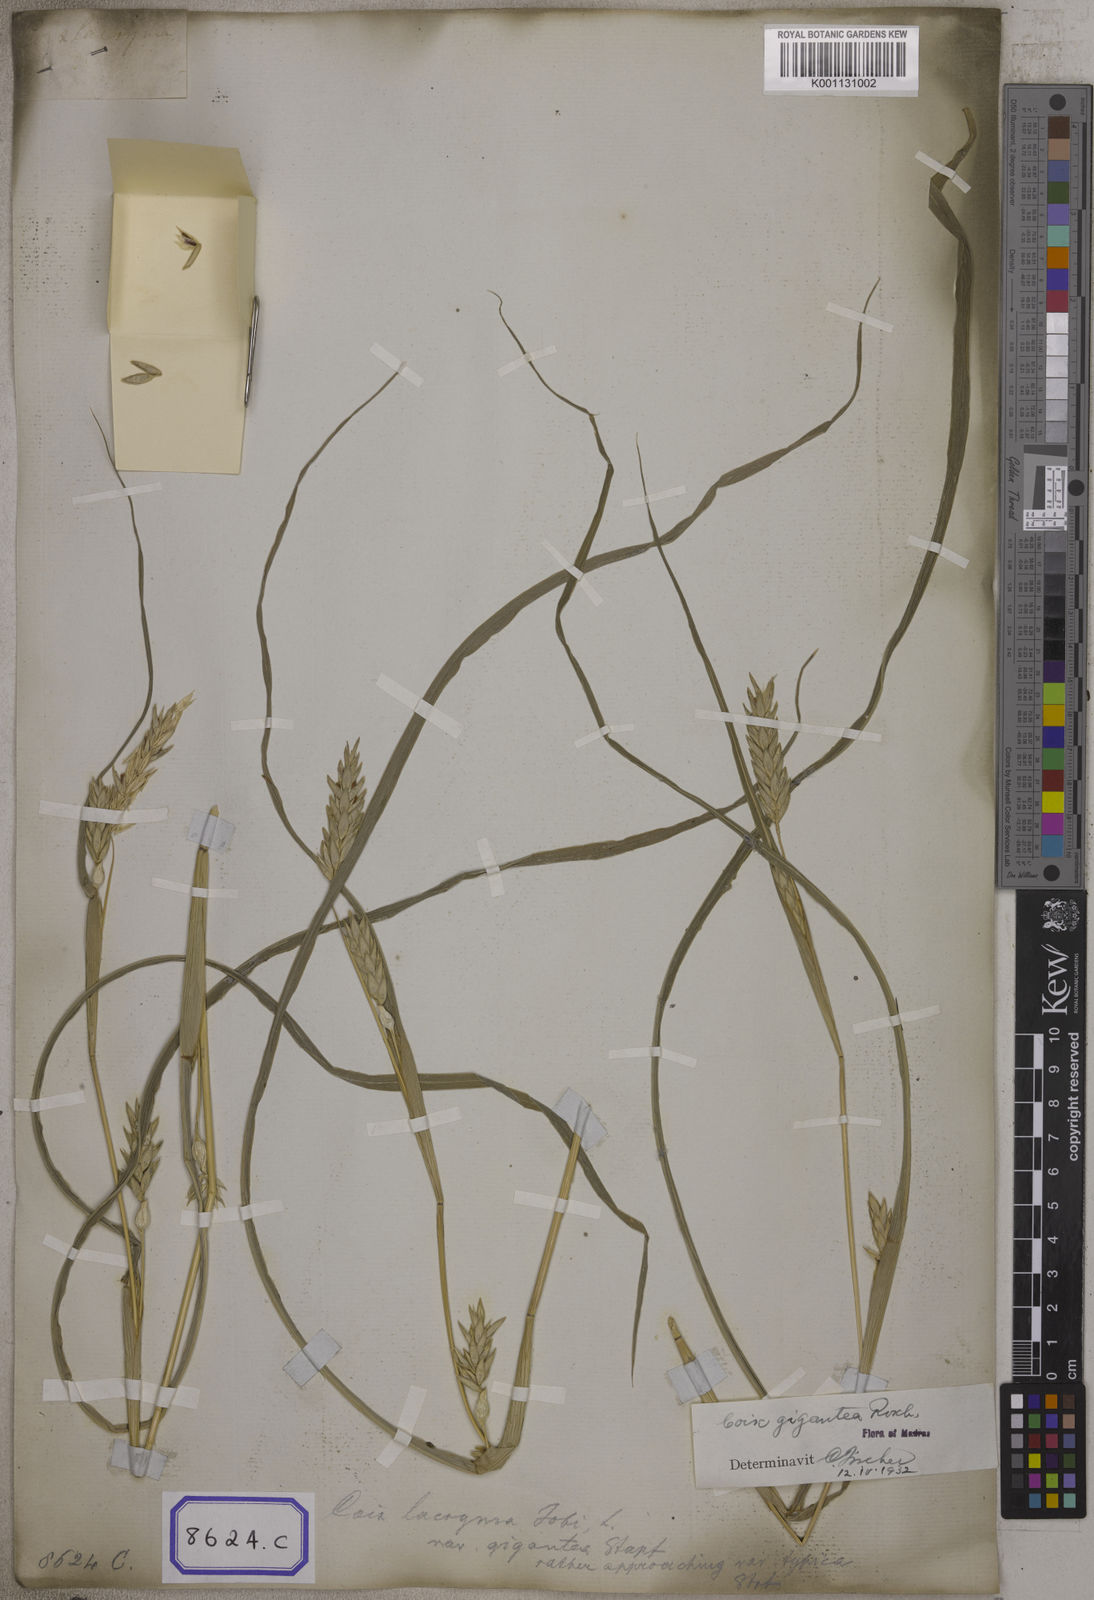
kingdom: Plantae
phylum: Tracheophyta
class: Liliopsida
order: Poales
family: Poaceae
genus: Polytoca
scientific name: Polytoca gigantea
